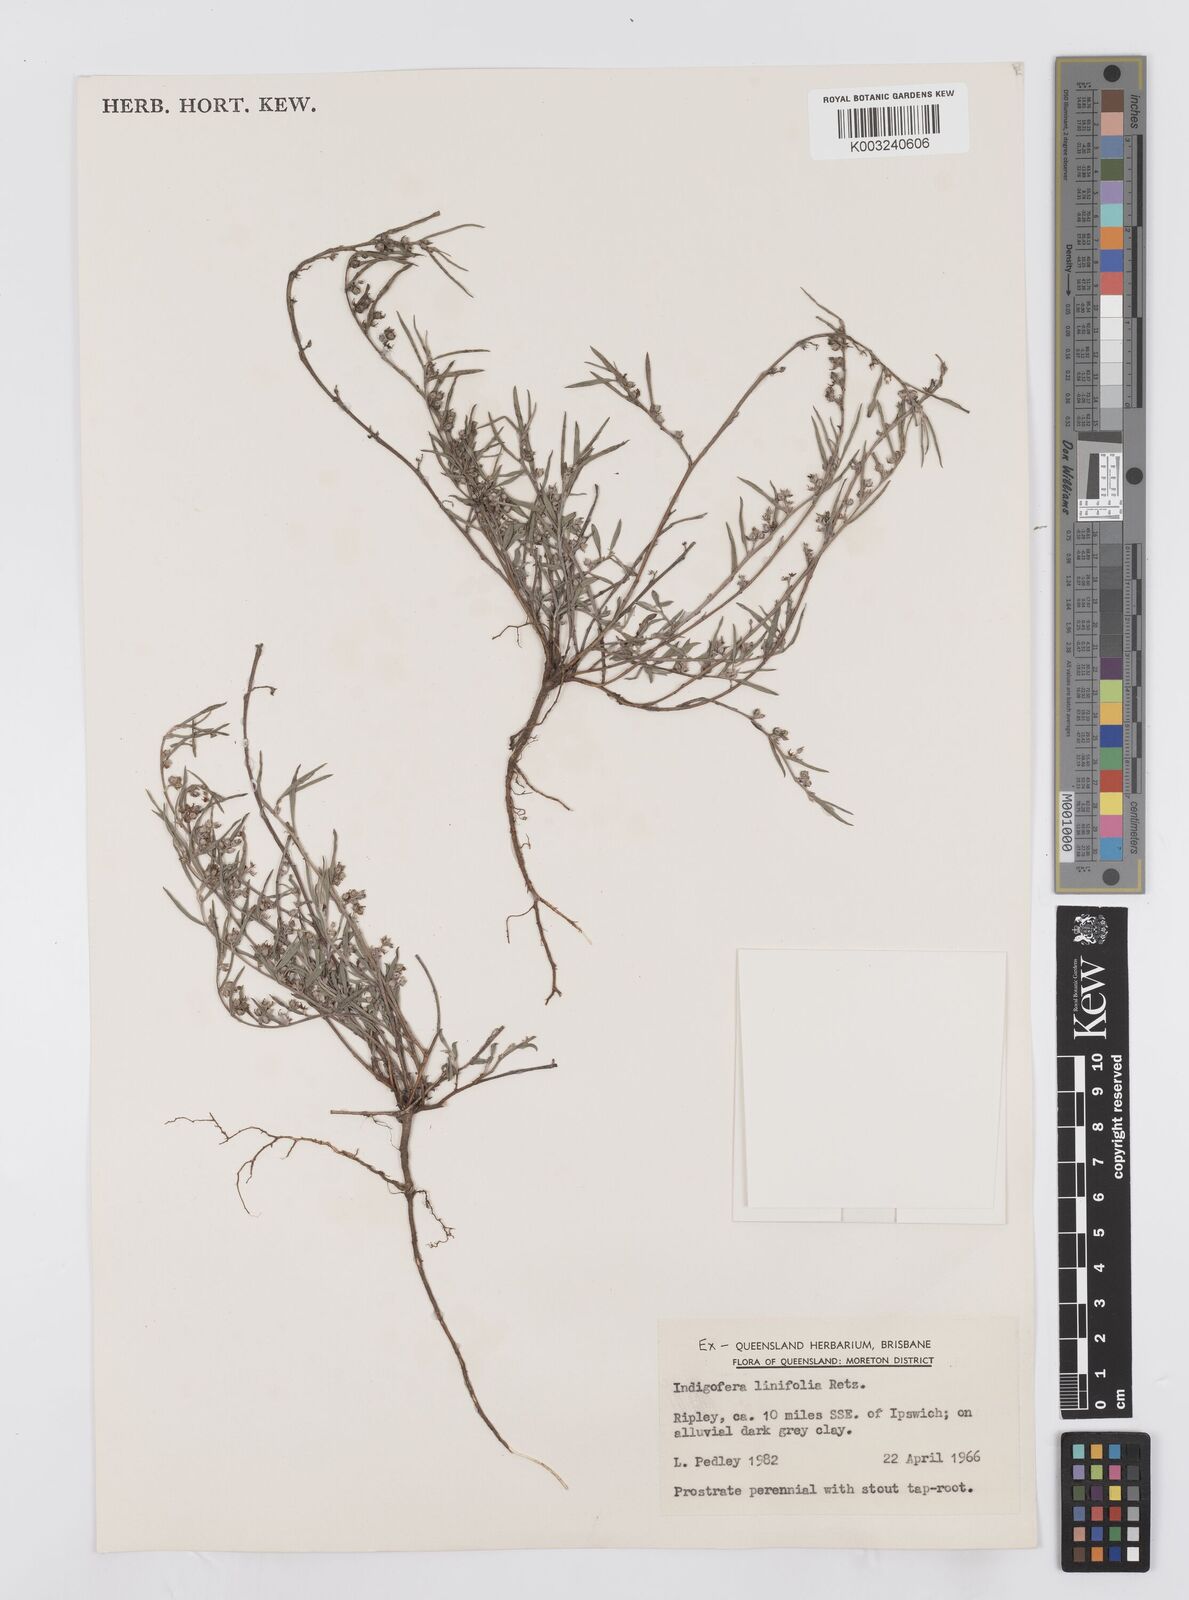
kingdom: Plantae
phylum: Tracheophyta
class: Magnoliopsida
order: Fabales
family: Fabaceae
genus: Indigofera
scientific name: Indigofera linifolia
